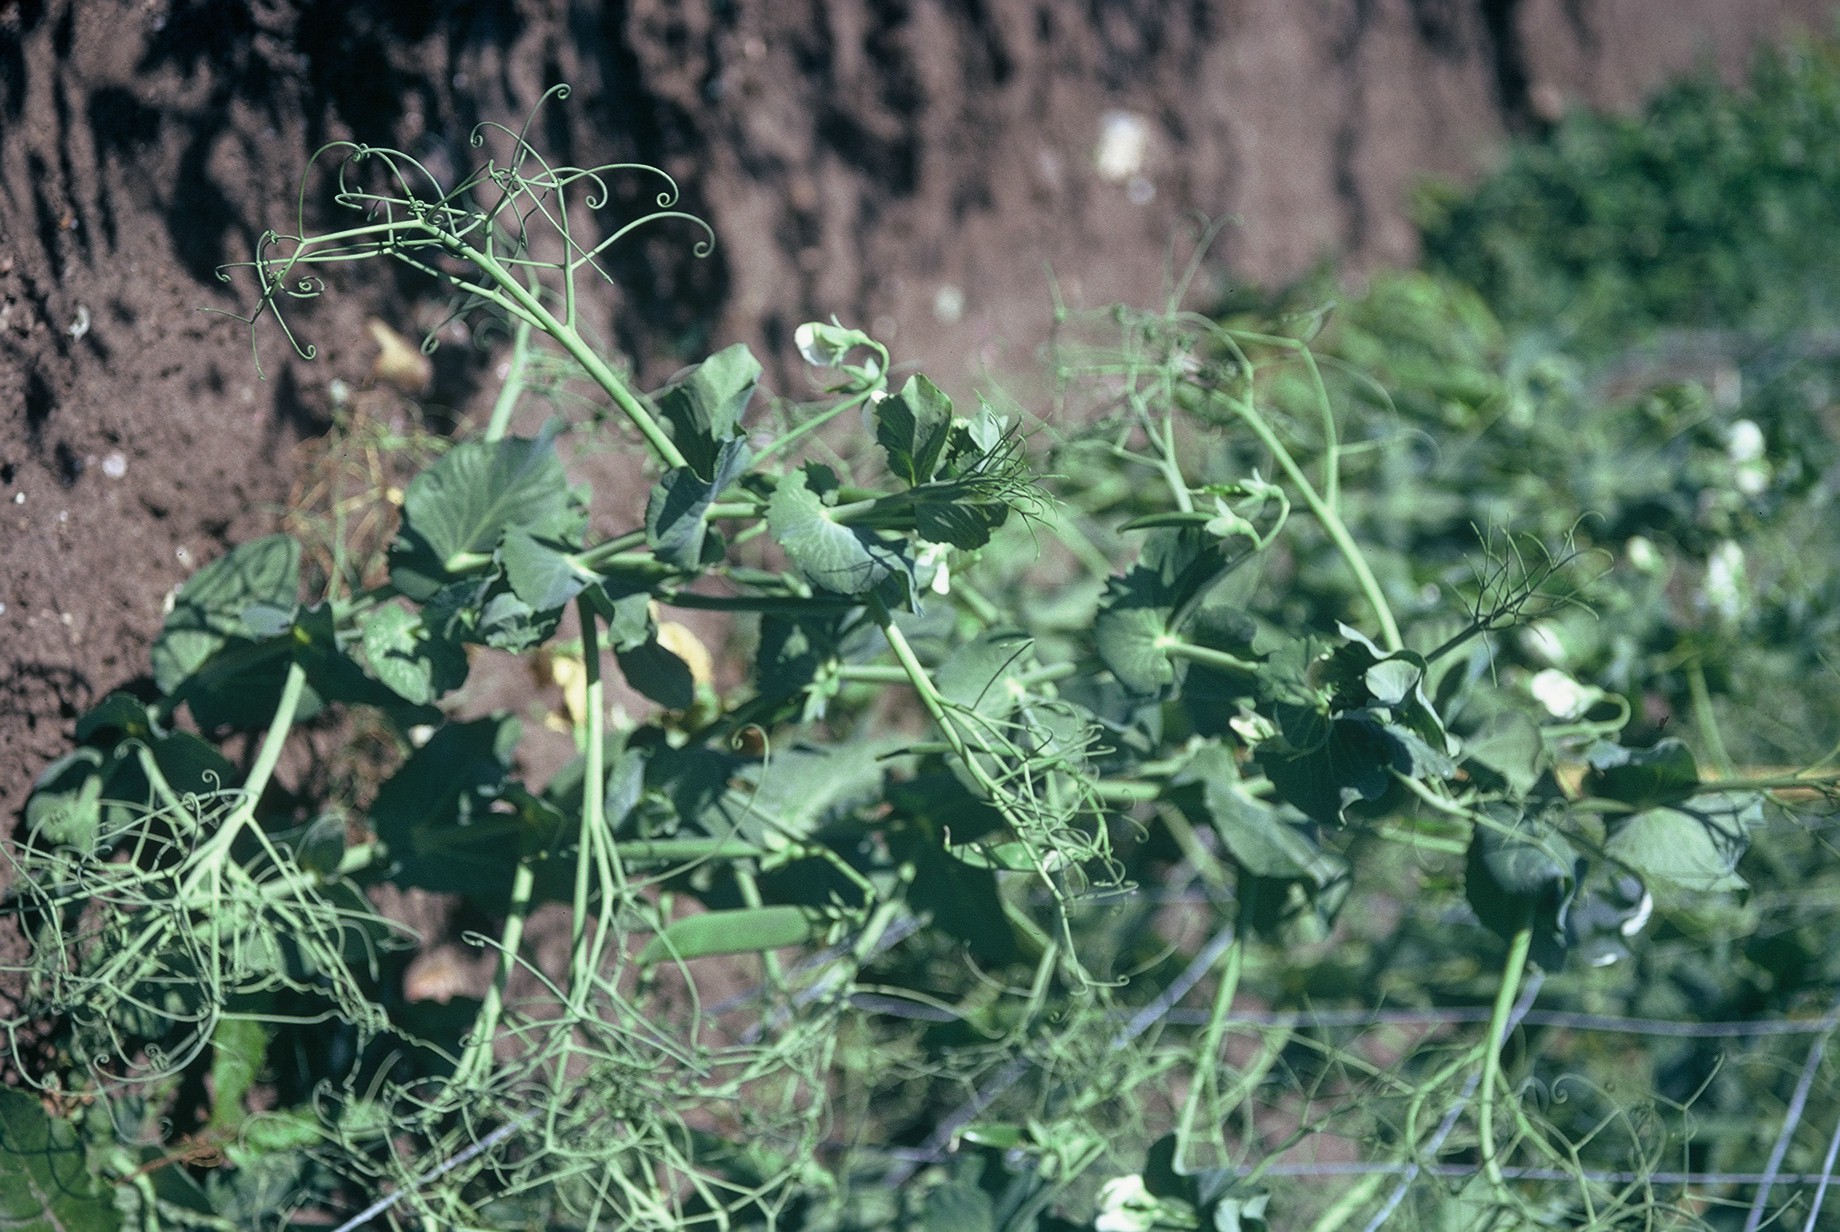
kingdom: Plantae
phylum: Tracheophyta
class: Magnoliopsida
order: Fabales
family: Fabaceae
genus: Lathyrus
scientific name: Lathyrus oleraceus
